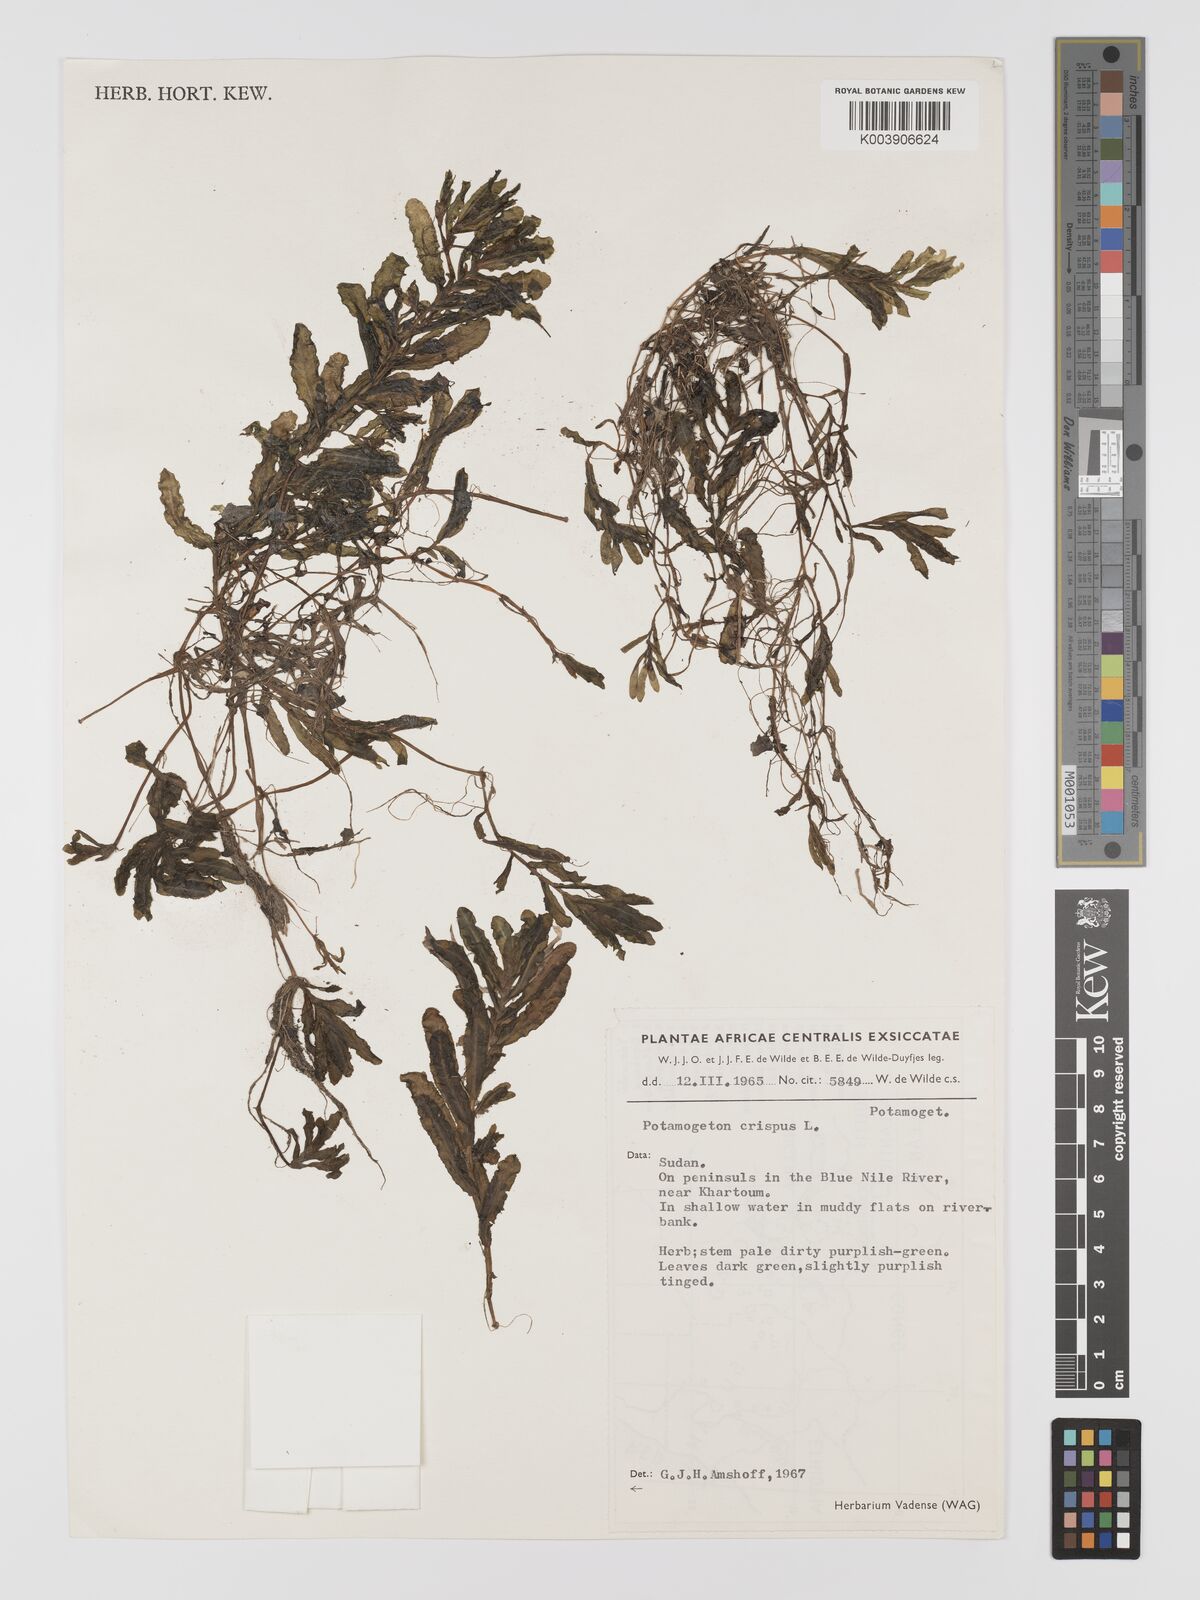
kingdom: Plantae
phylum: Tracheophyta
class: Liliopsida
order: Alismatales
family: Potamogetonaceae
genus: Potamogeton
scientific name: Potamogeton crispus
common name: Curled pondweed
